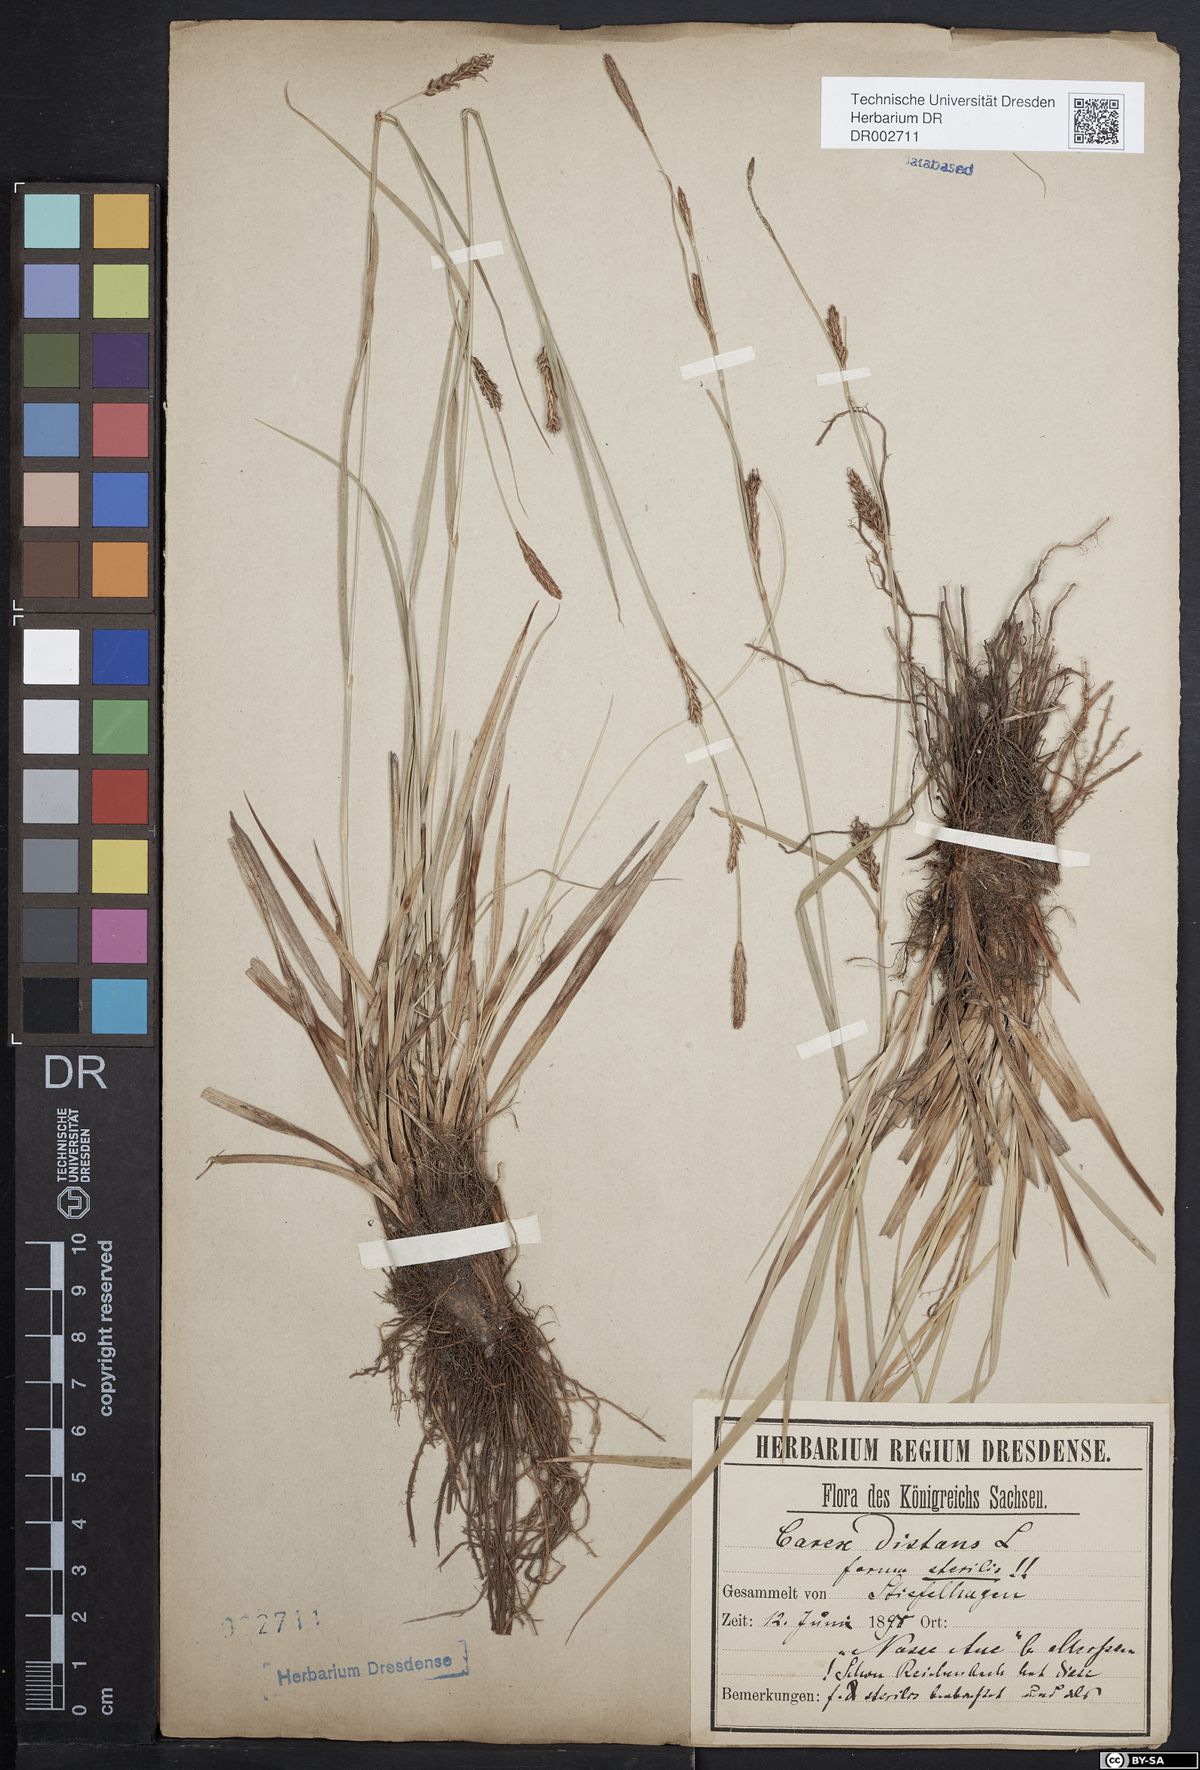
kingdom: Plantae
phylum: Tracheophyta
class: Liliopsida
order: Poales
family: Cyperaceae
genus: Carex
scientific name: Carex distans
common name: Distant sedge
